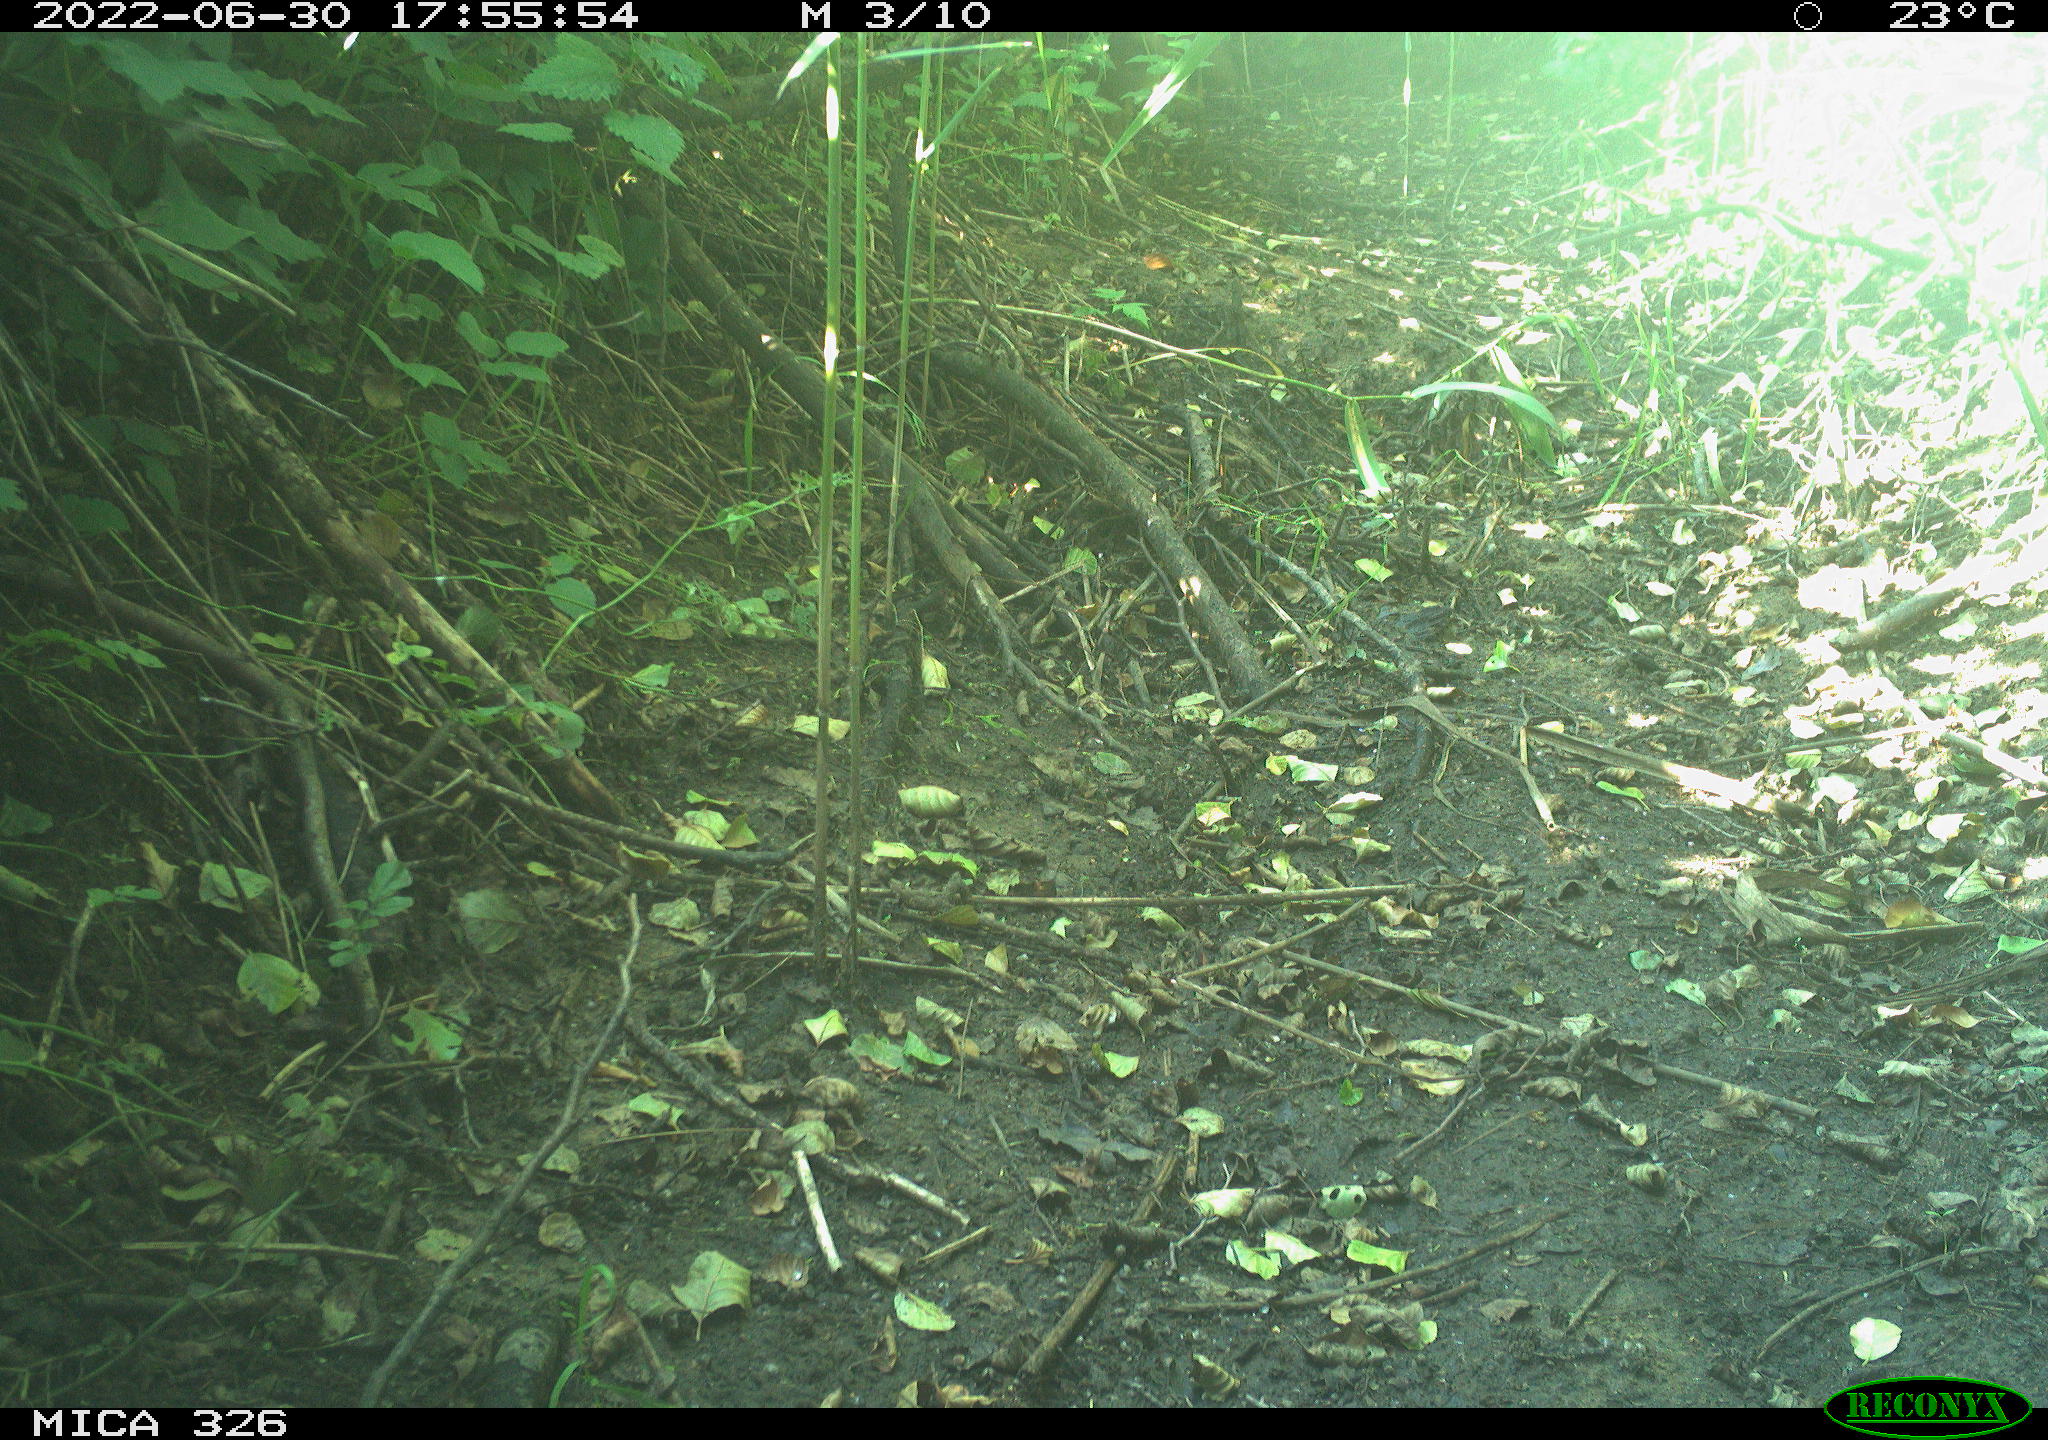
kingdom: Animalia
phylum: Chordata
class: Mammalia
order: Lagomorpha
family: Leporidae
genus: Lepus
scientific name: Lepus europaeus
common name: European hare
